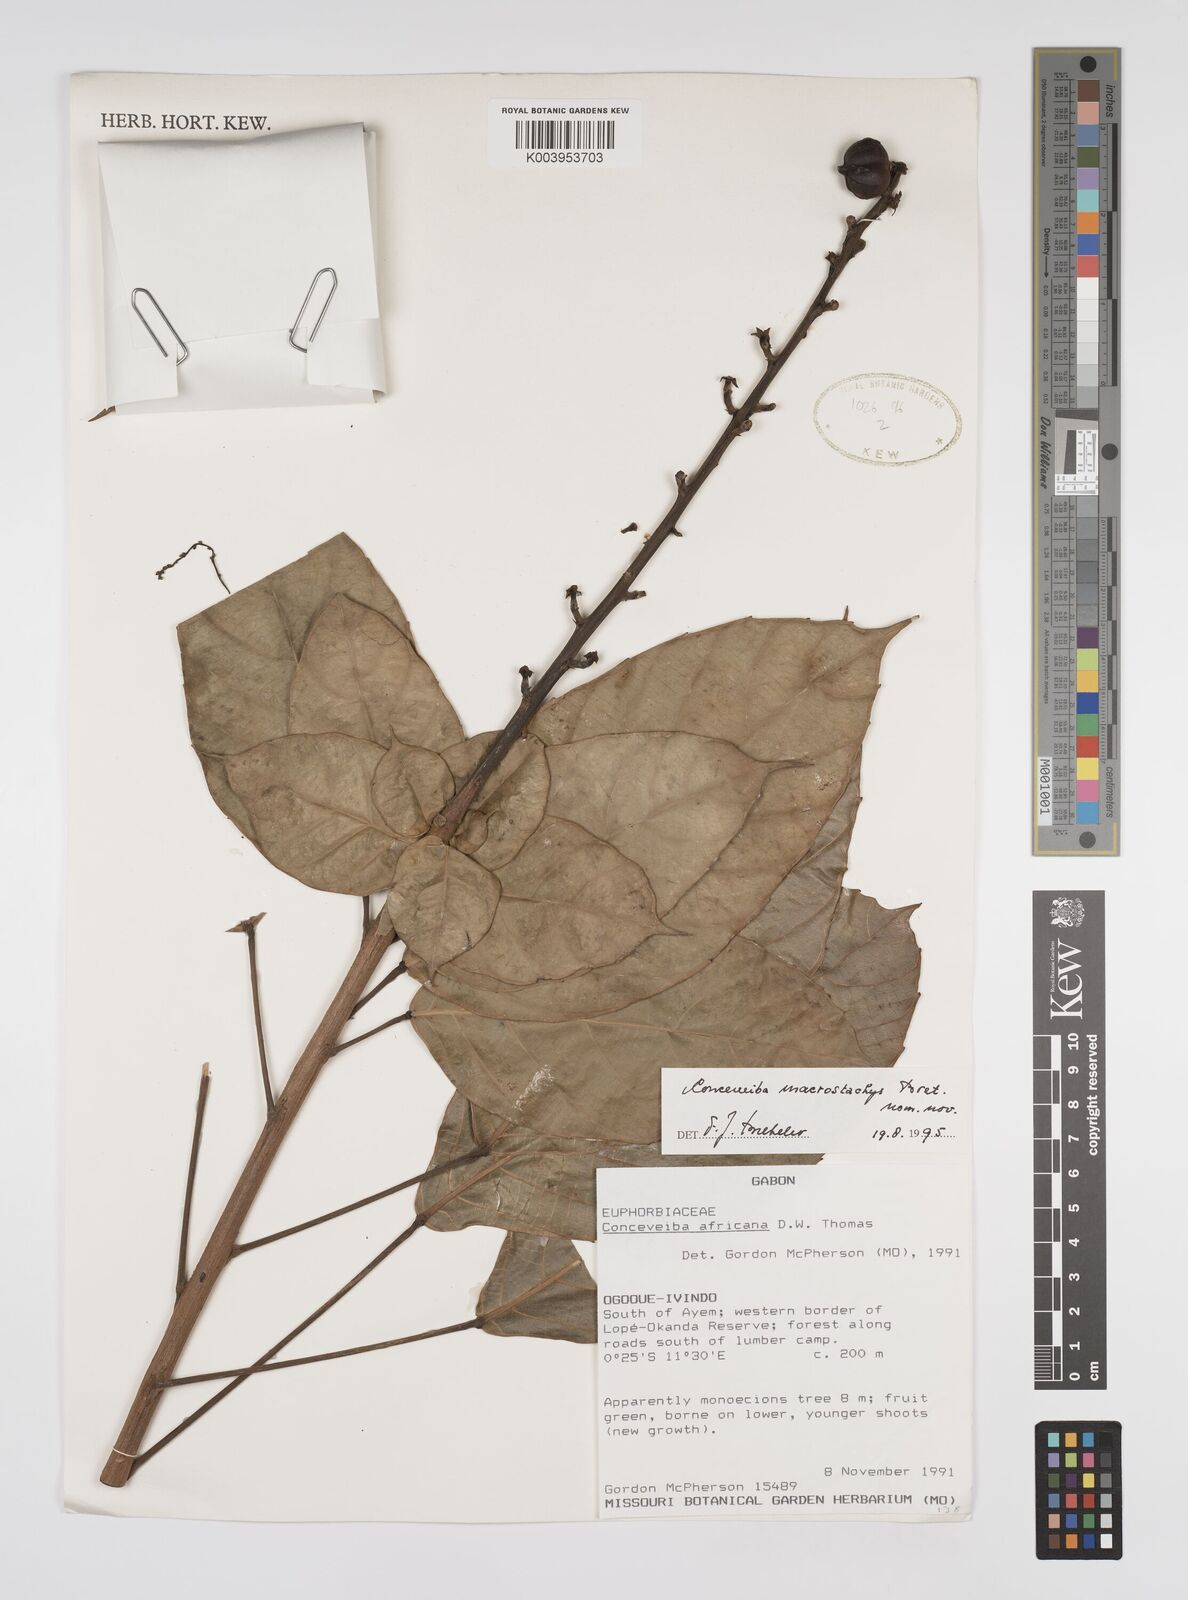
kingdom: Plantae
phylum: Tracheophyta
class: Magnoliopsida
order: Malpighiales
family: Euphorbiaceae
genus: Aubletiana
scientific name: Aubletiana macrostachys
